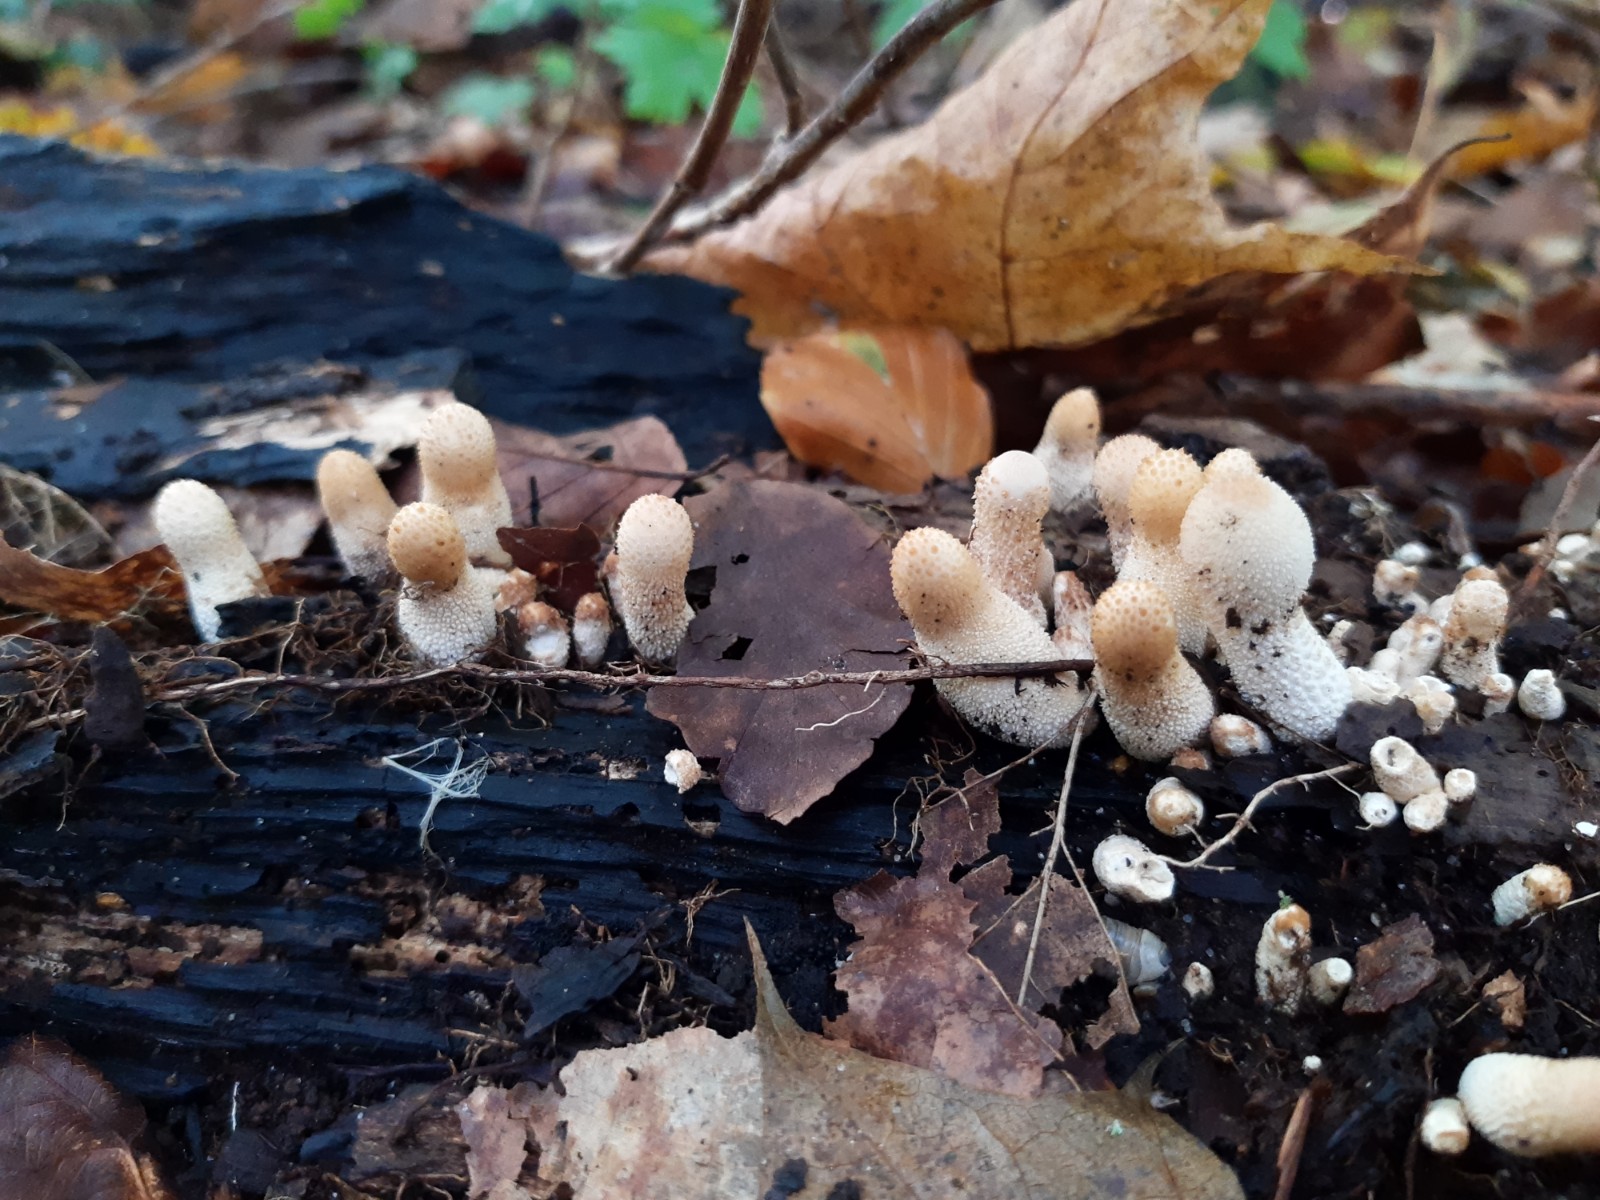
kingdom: Fungi
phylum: Basidiomycota
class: Agaricomycetes
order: Agaricales
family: Lycoperdaceae
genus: Apioperdon
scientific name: Apioperdon pyriforme
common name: pære-støvbold
